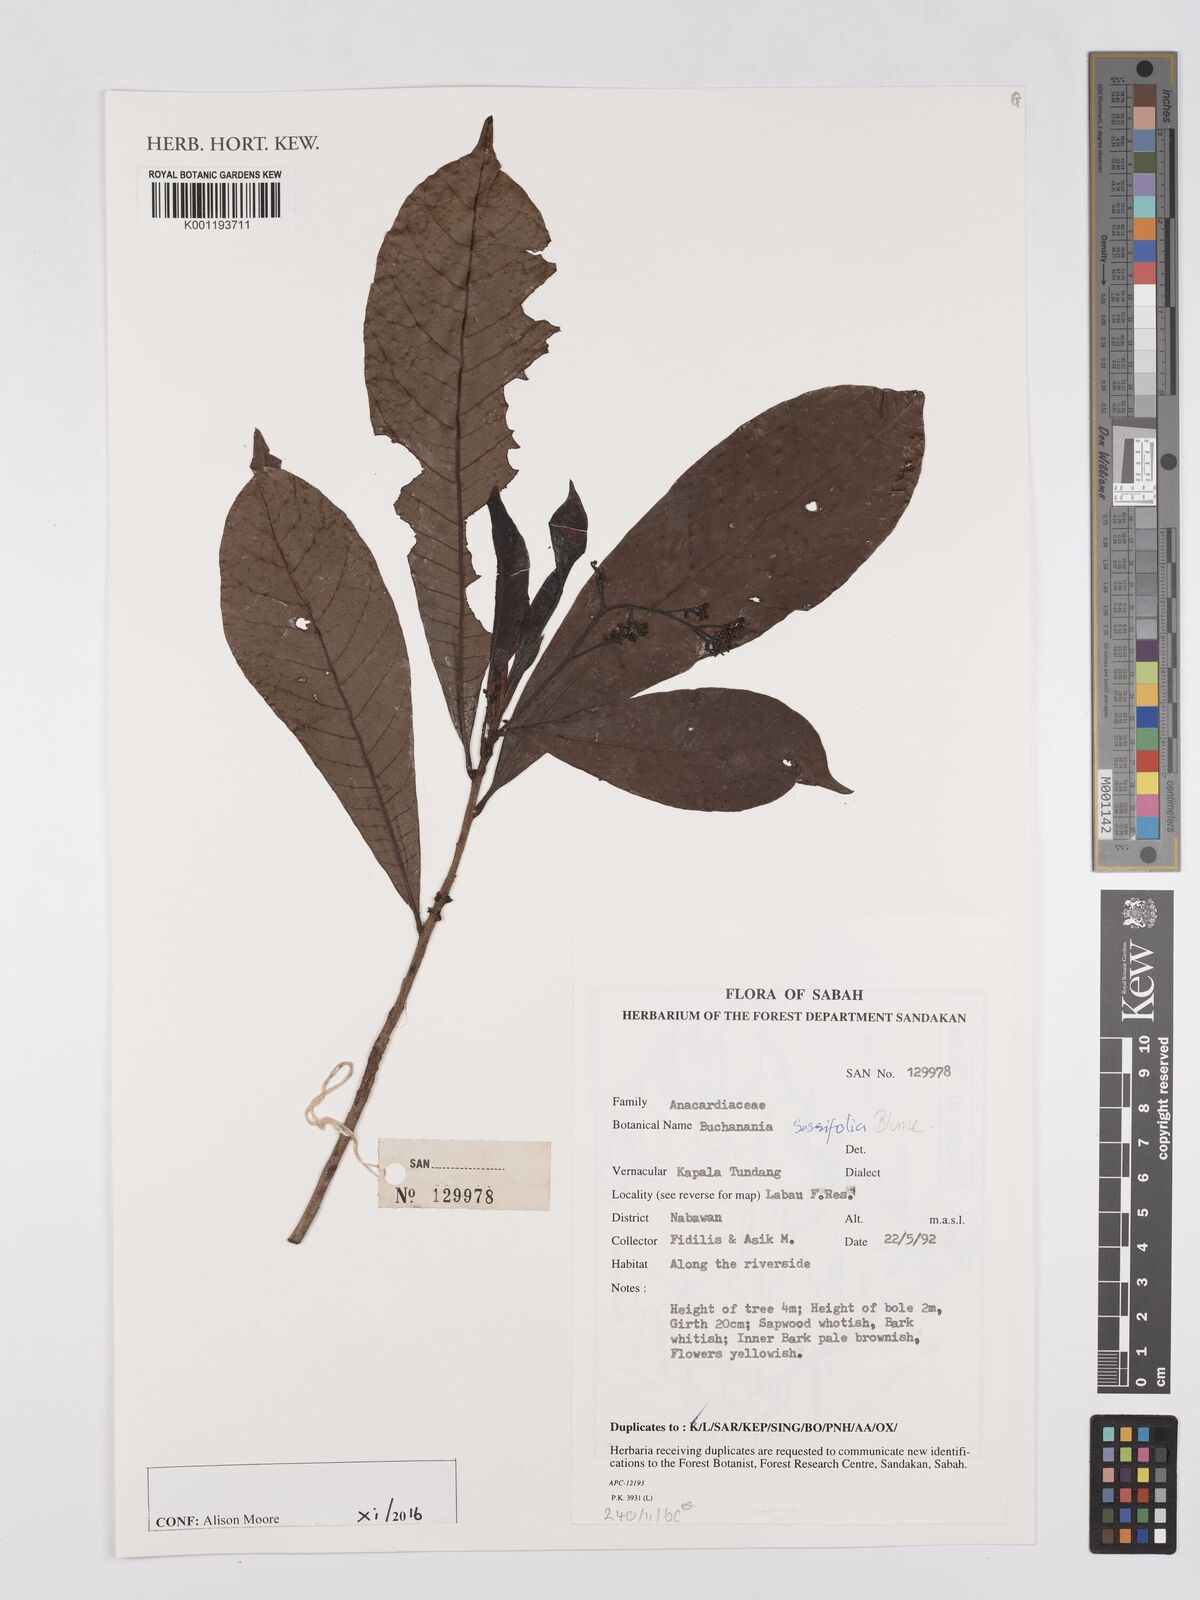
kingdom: Plantae
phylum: Tracheophyta
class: Magnoliopsida
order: Sapindales
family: Anacardiaceae
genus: Buchanania
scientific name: Buchanania sessifolia
